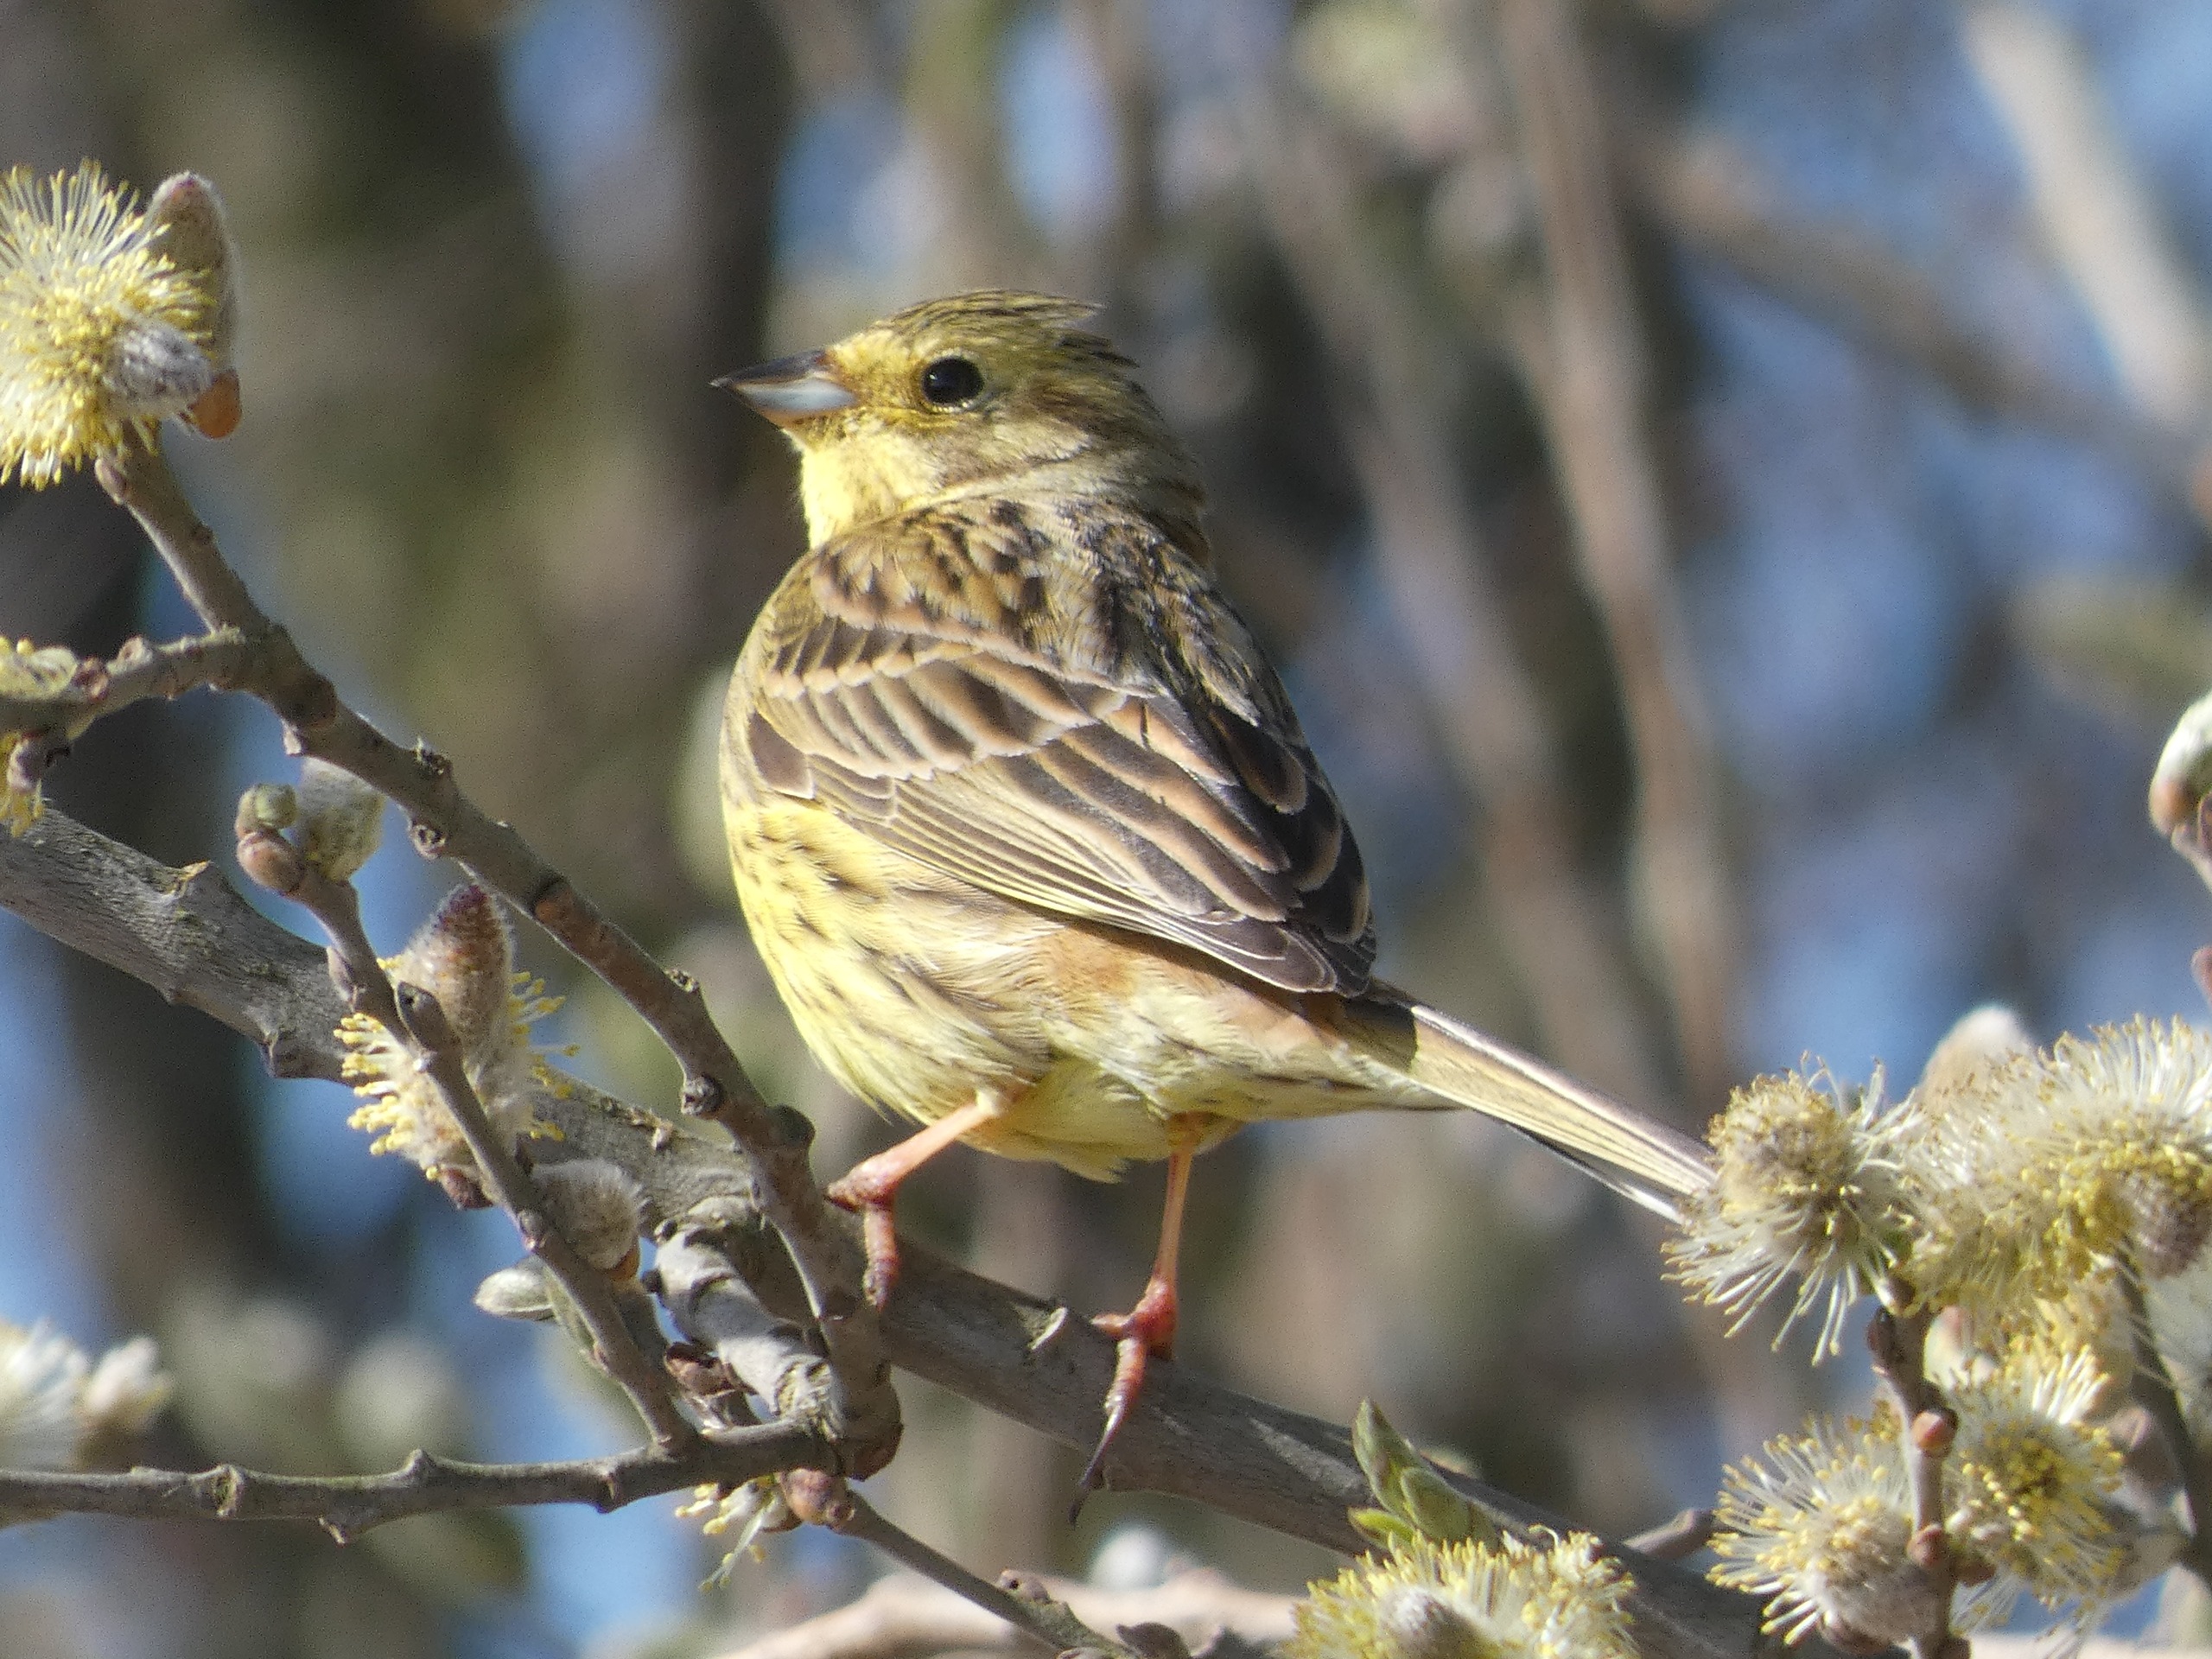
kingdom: Animalia
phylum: Chordata
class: Aves
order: Passeriformes
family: Emberizidae
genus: Emberiza
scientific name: Emberiza citrinella
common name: Gulspurv
